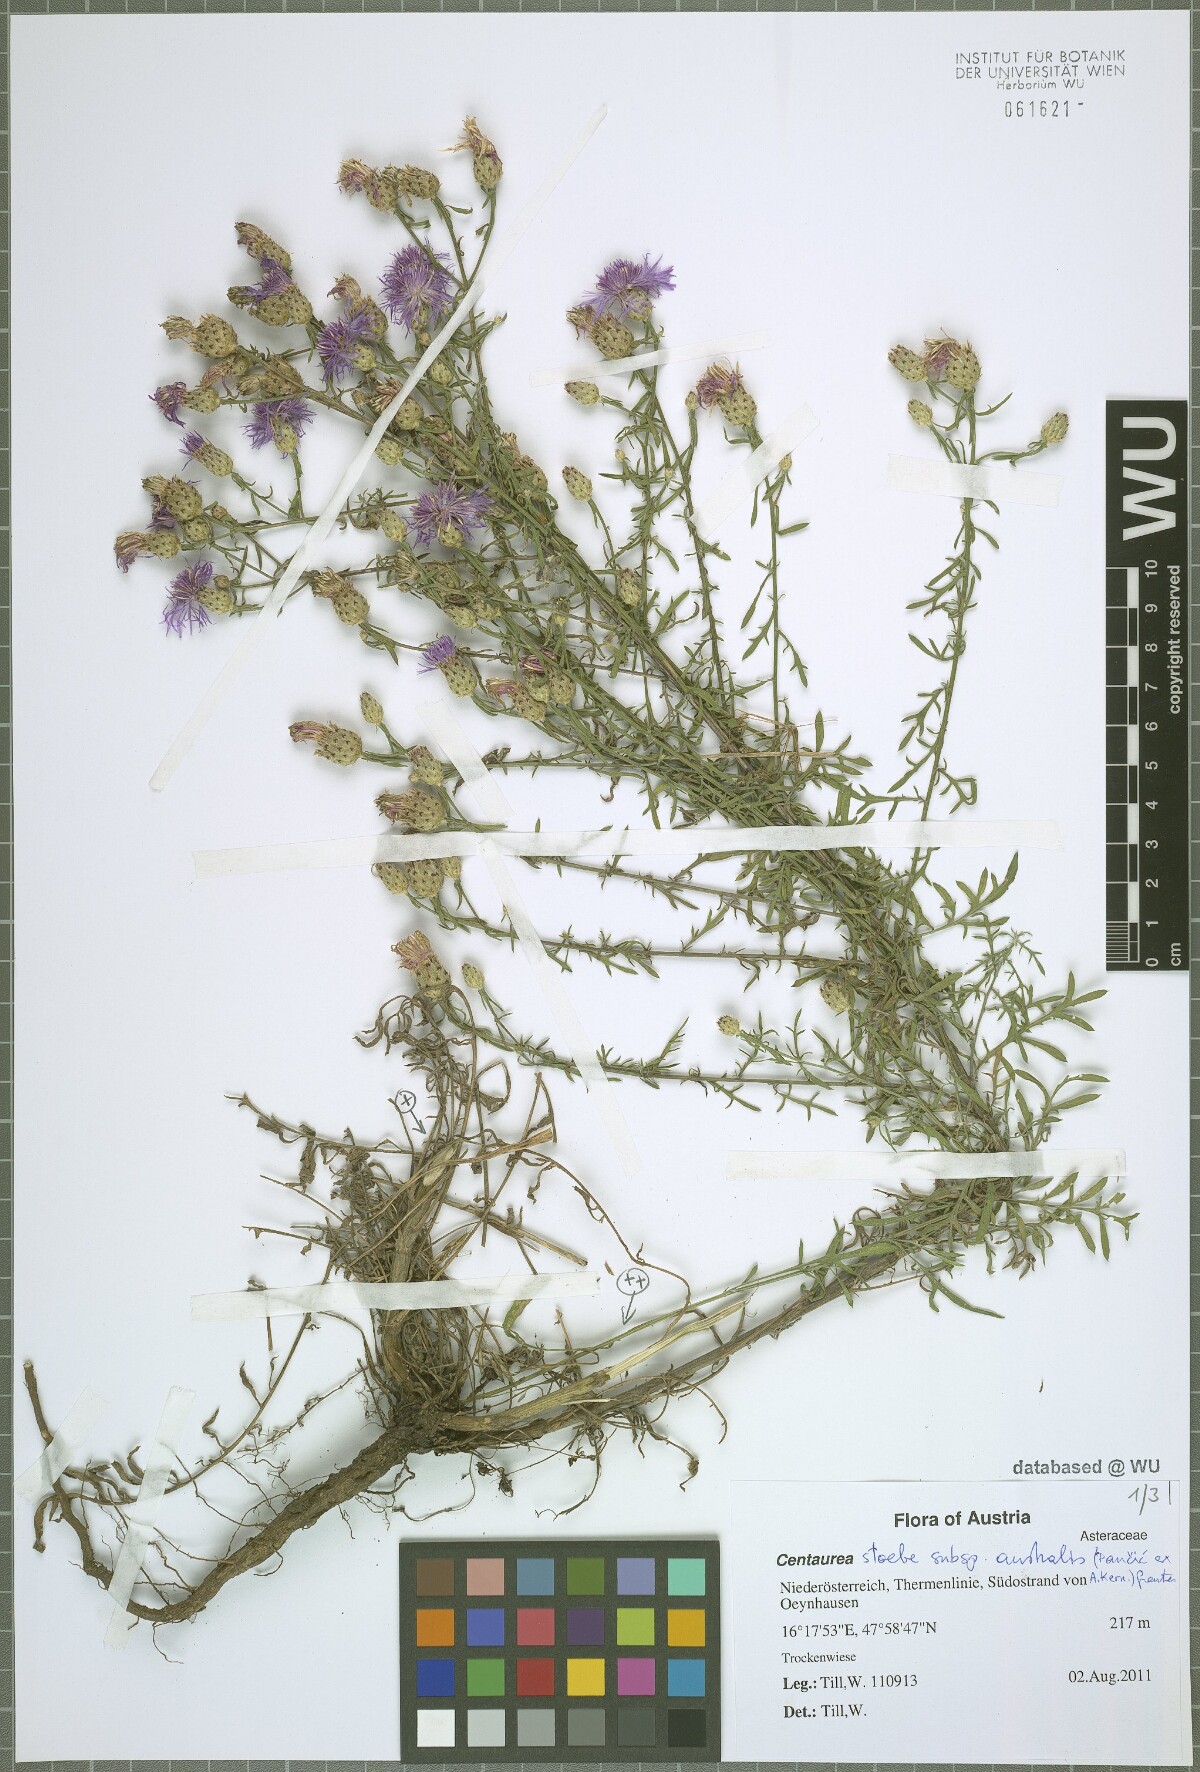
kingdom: Plantae
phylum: Tracheophyta
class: Magnoliopsida
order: Asterales
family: Asteraceae
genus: Centaurea
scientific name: Centaurea australis
